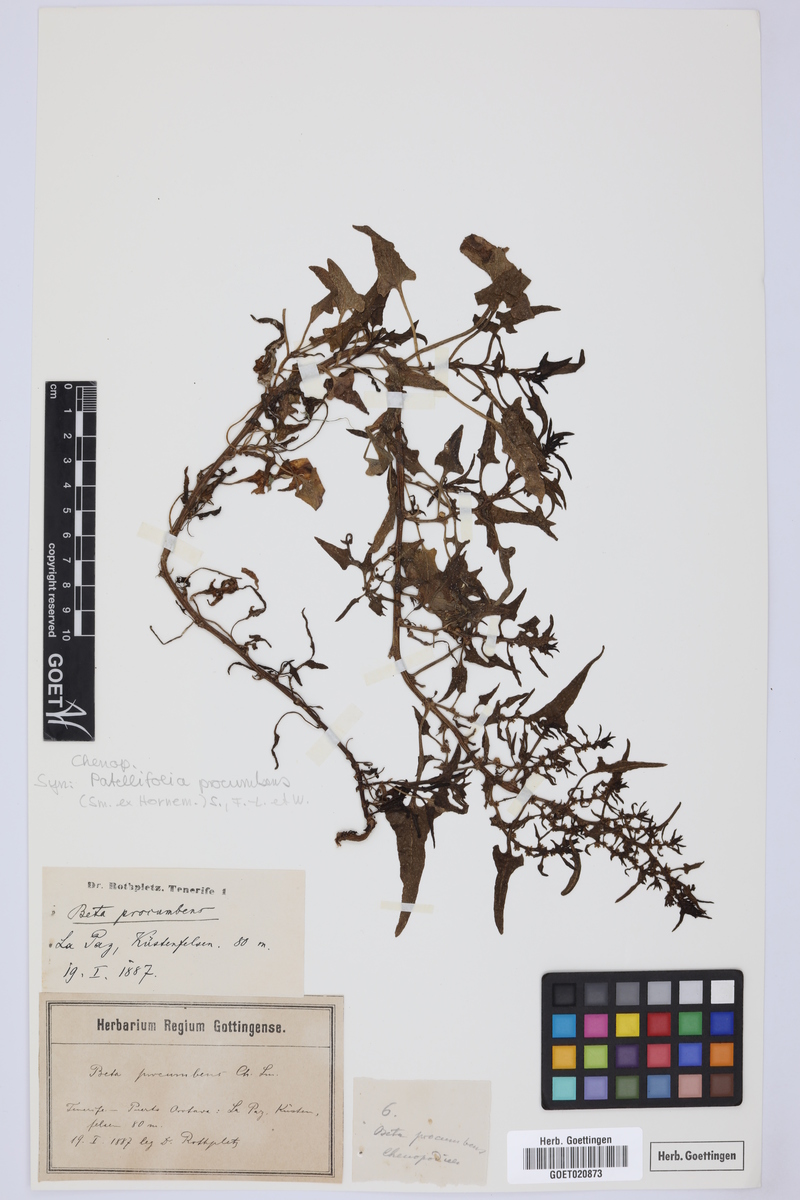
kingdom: Plantae
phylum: Tracheophyta
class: Magnoliopsida
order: Caryophyllales
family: Amaranthaceae
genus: Patellifolia
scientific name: Patellifolia procumbens
